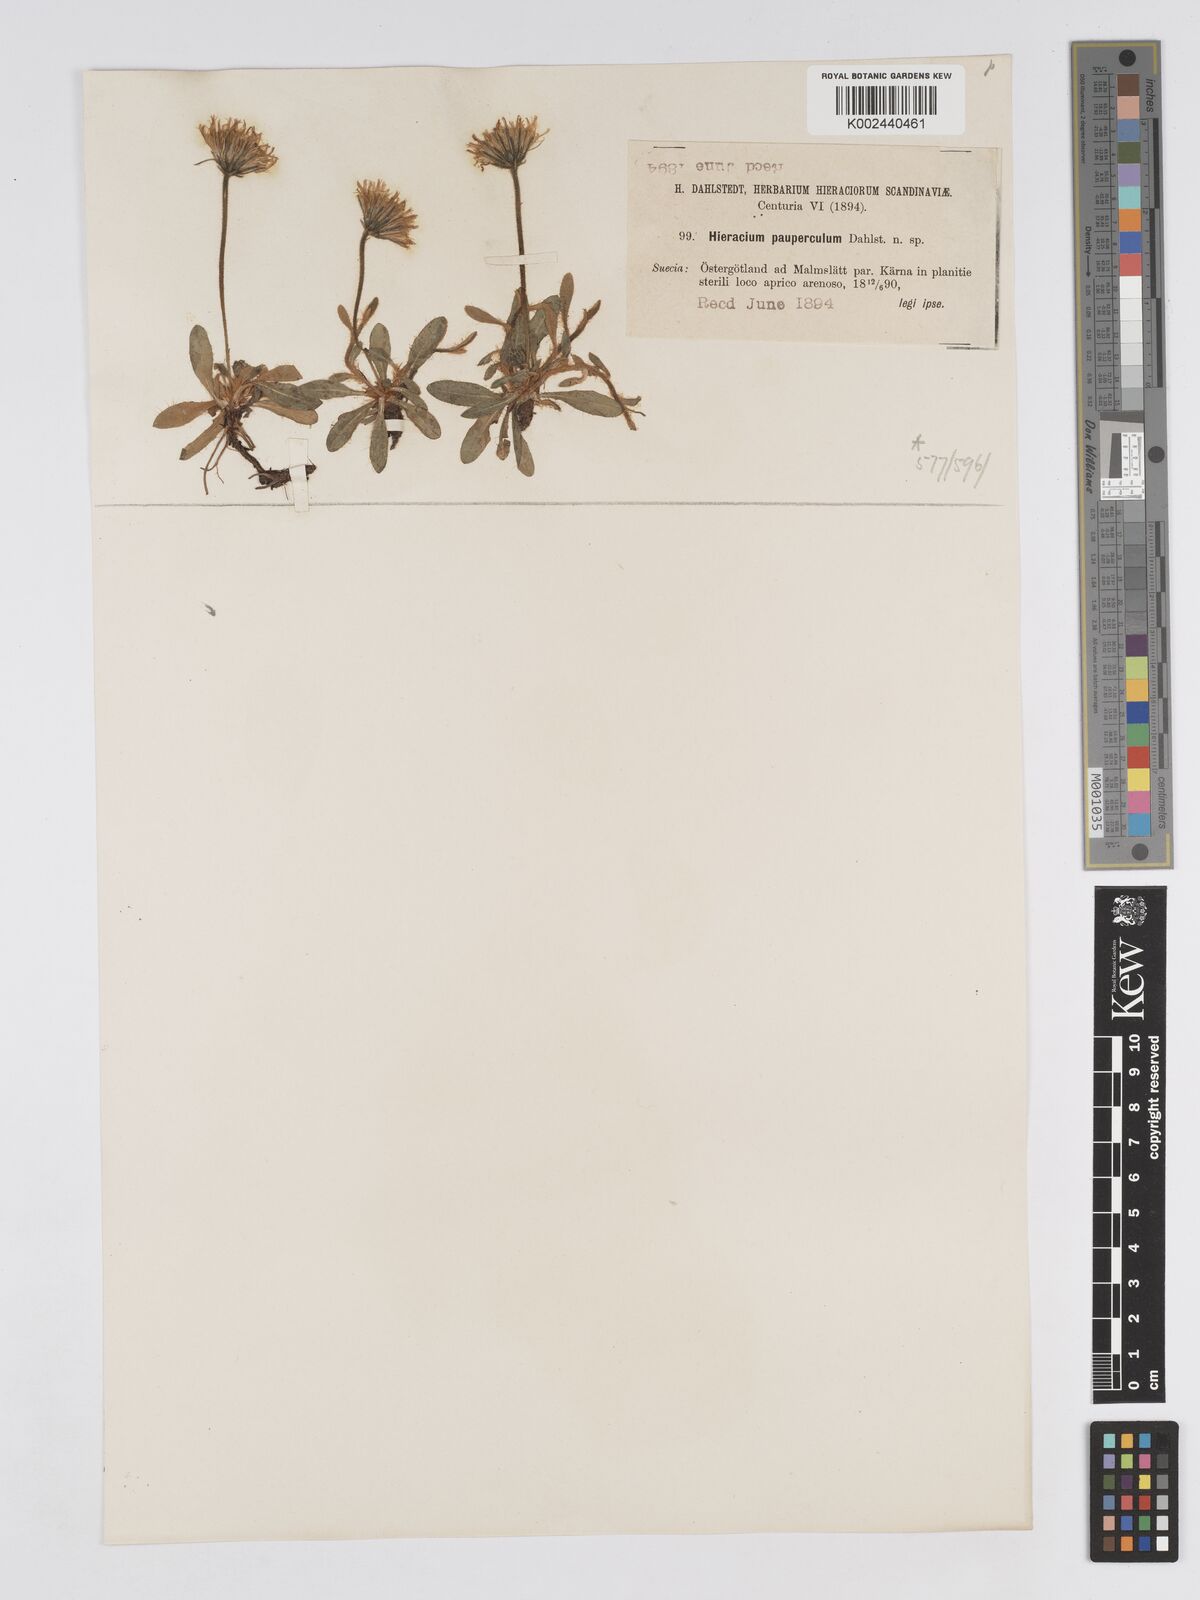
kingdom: Plantae
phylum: Tracheophyta
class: Magnoliopsida
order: Asterales
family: Asteraceae
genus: Pilosella
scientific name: Pilosella officinarum
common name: Mouse-ear hawkweed
